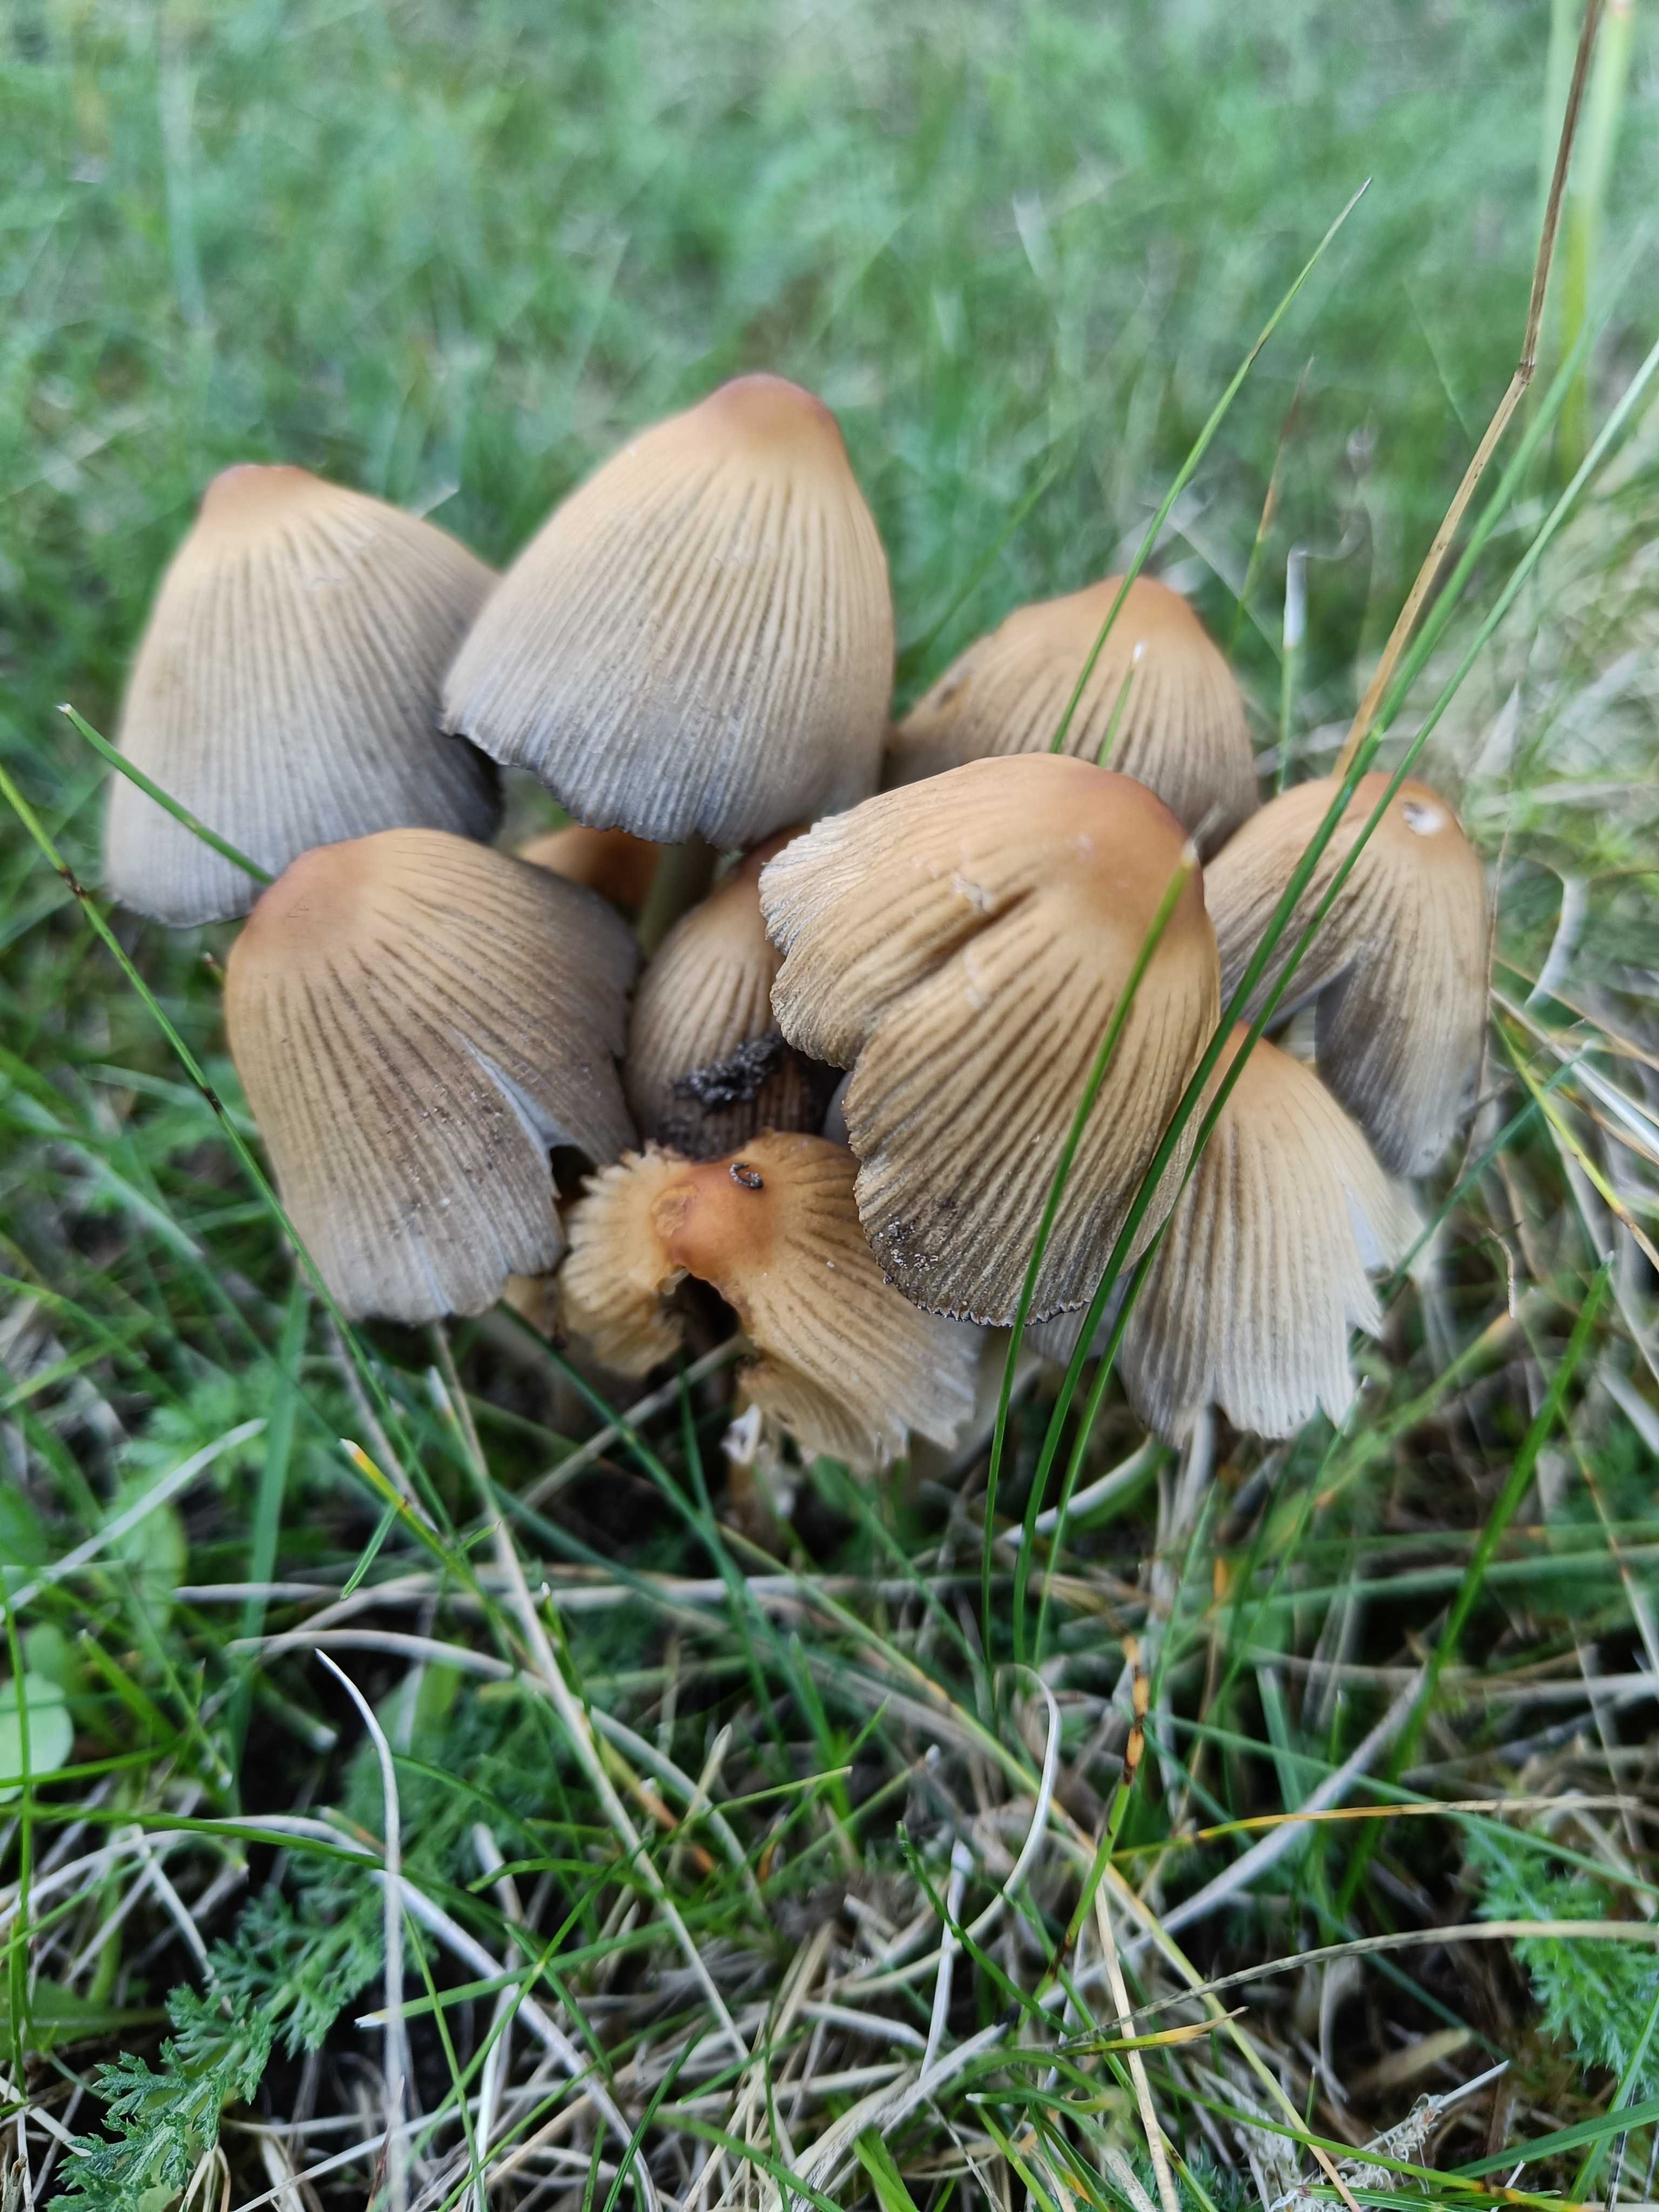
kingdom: Fungi
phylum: Basidiomycota
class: Agaricomycetes
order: Agaricales
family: Psathyrellaceae
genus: Coprinellus
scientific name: Coprinellus
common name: blækhat
